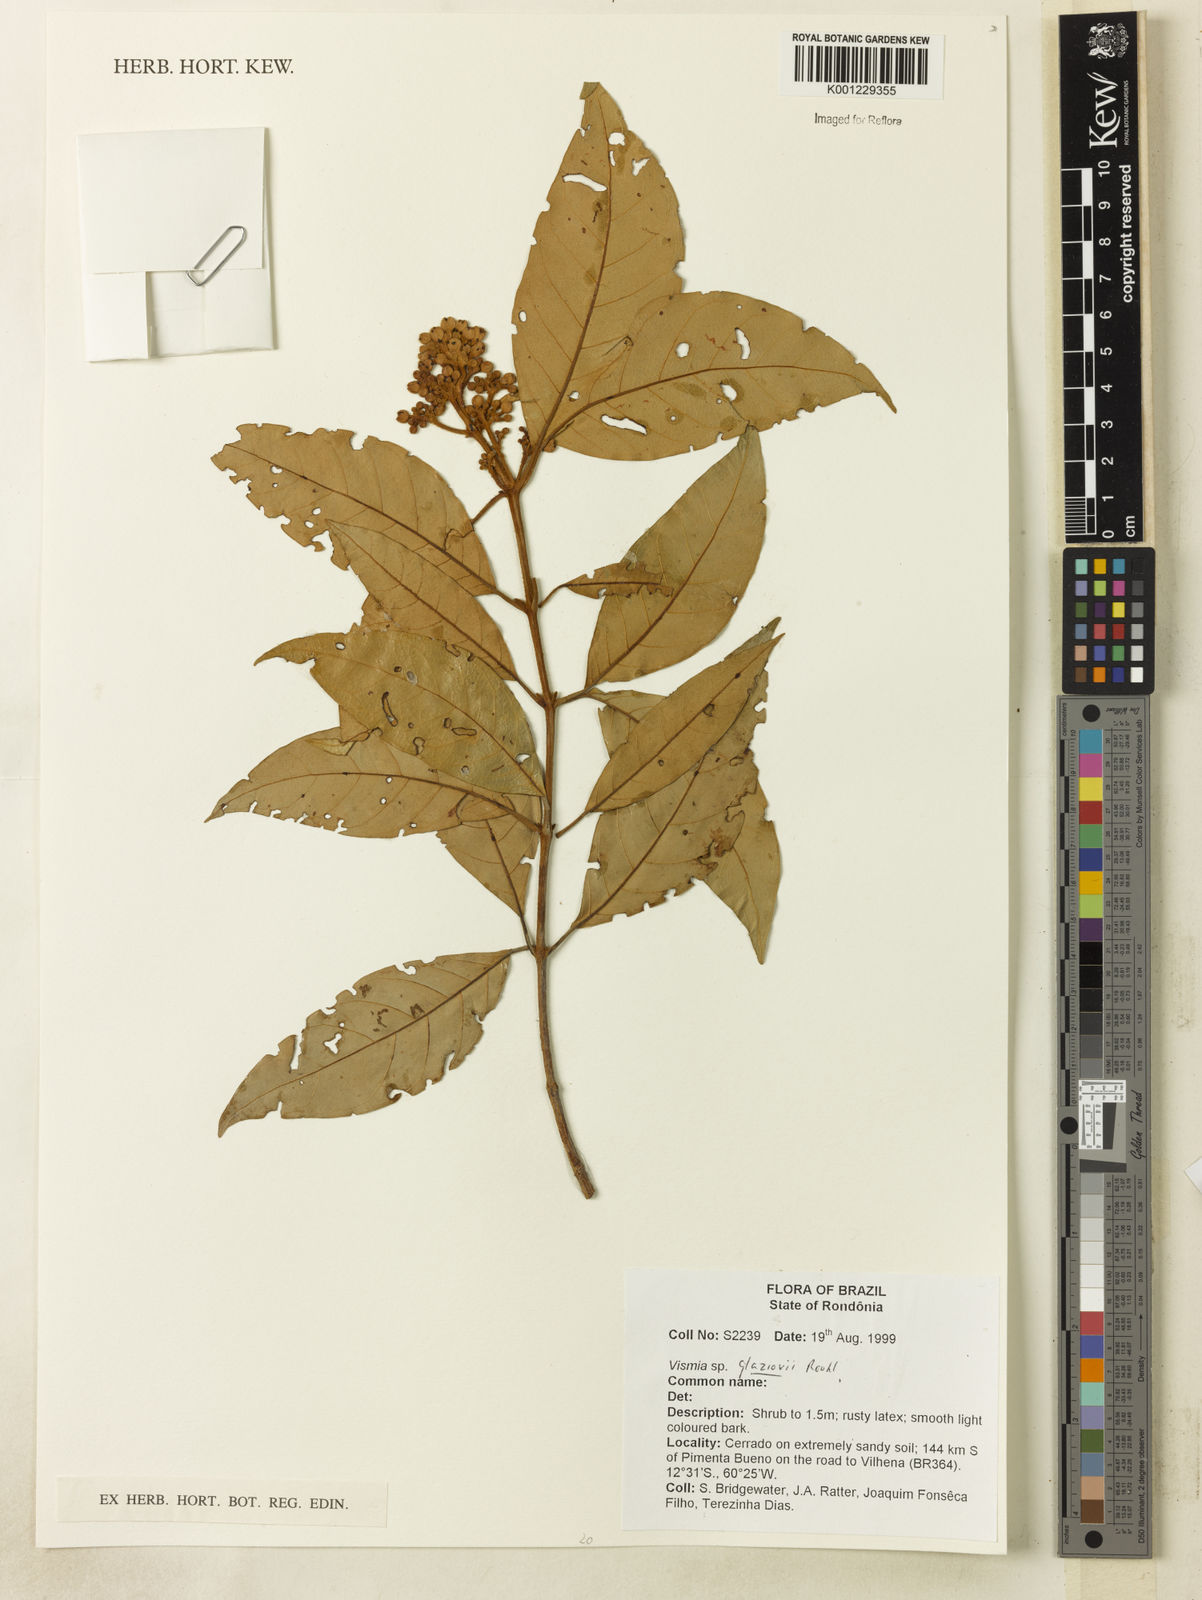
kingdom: Plantae
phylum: Tracheophyta
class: Magnoliopsida
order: Malpighiales
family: Hypericaceae
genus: Vismia
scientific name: Vismia gracilis
